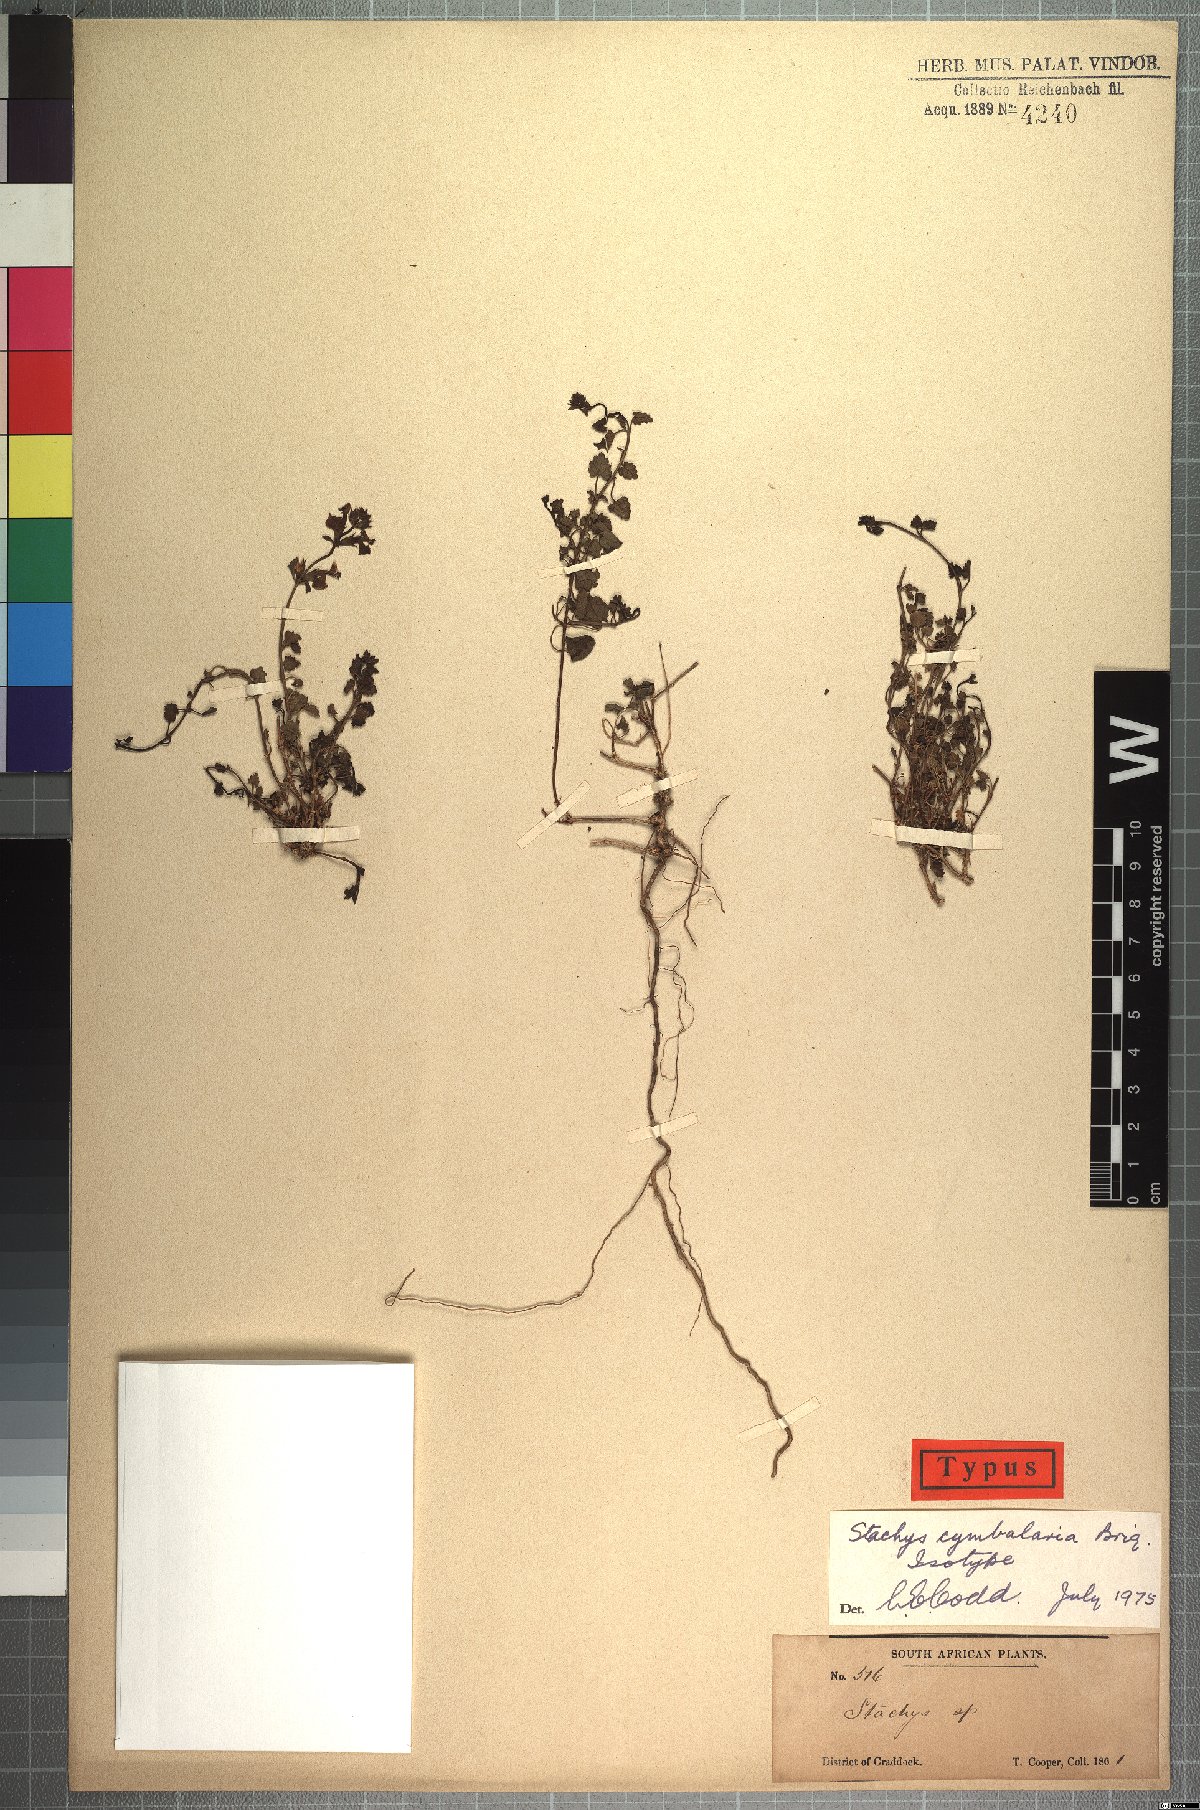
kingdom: Plantae
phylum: Tracheophyta
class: Magnoliopsida
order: Lamiales
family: Lamiaceae
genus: Stachys
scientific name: Stachys cymbalaria
